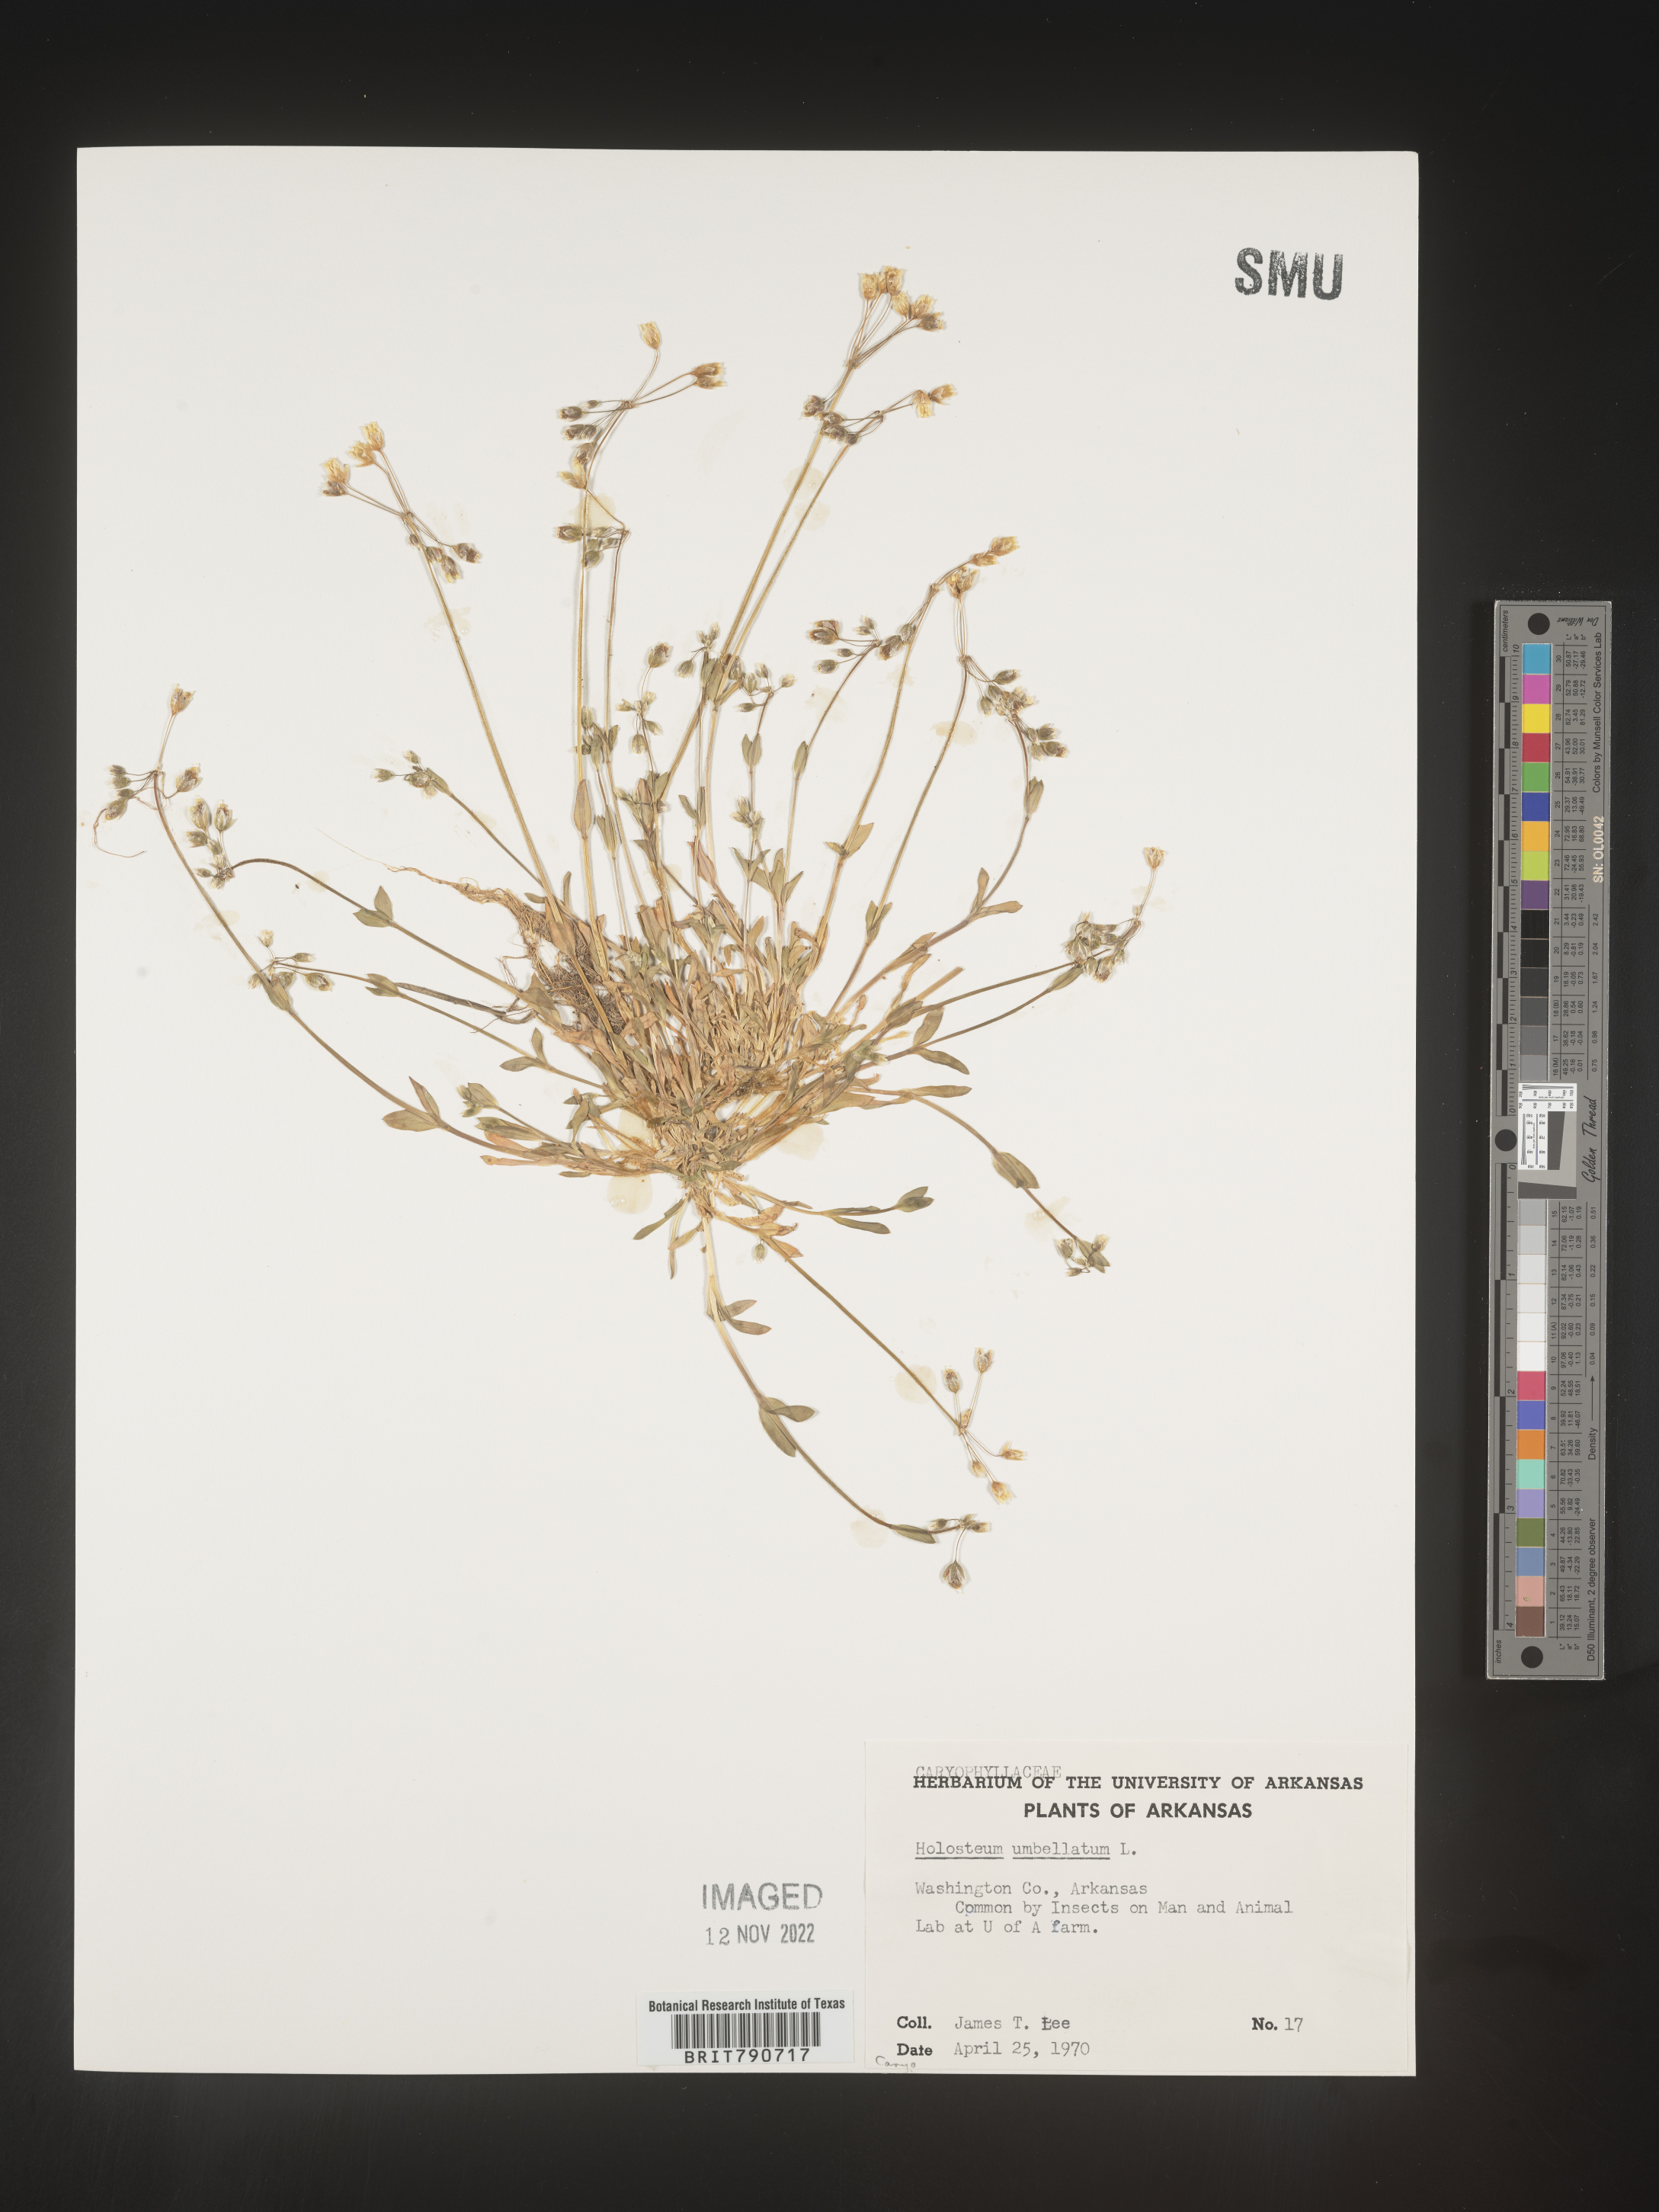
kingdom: Plantae
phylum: Tracheophyta
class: Magnoliopsida
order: Caryophyllales
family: Caryophyllaceae
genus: Holosteum
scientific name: Holosteum
